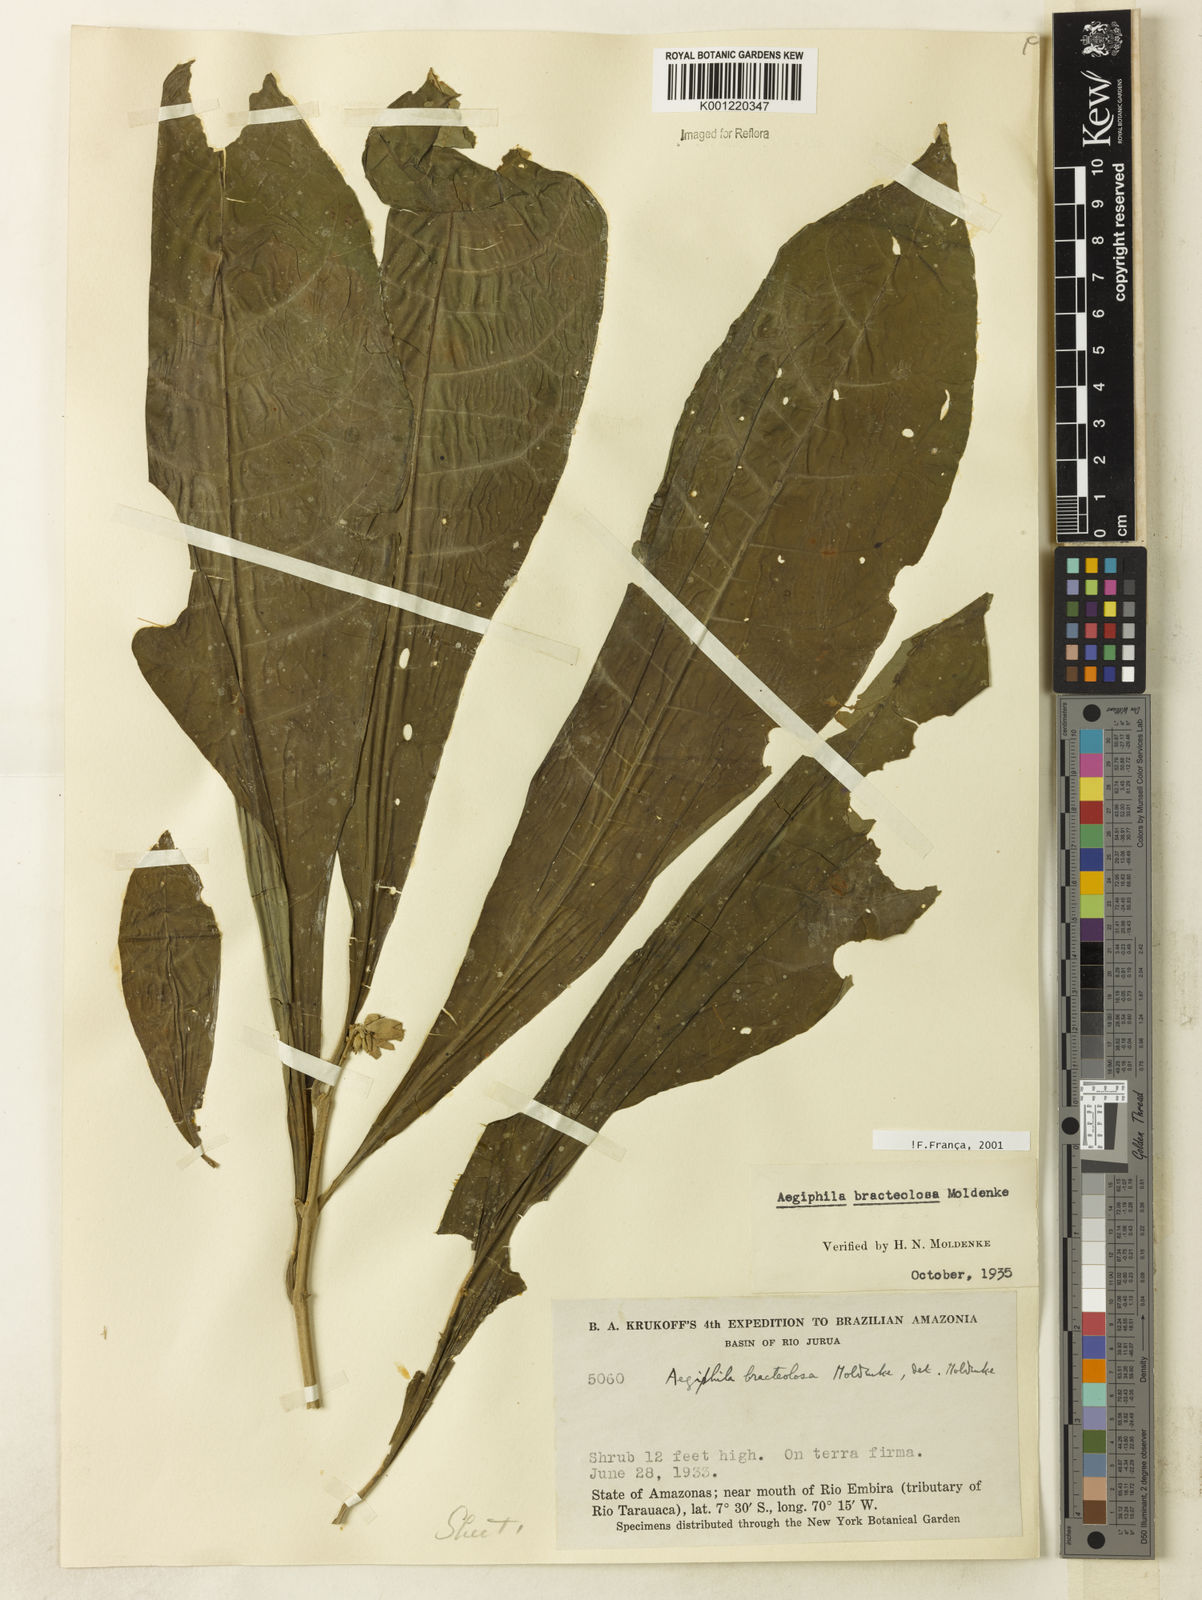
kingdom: Plantae
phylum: Tracheophyta
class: Magnoliopsida
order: Lamiales
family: Lamiaceae
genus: Aegiphila
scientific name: Aegiphila bracteolosa
